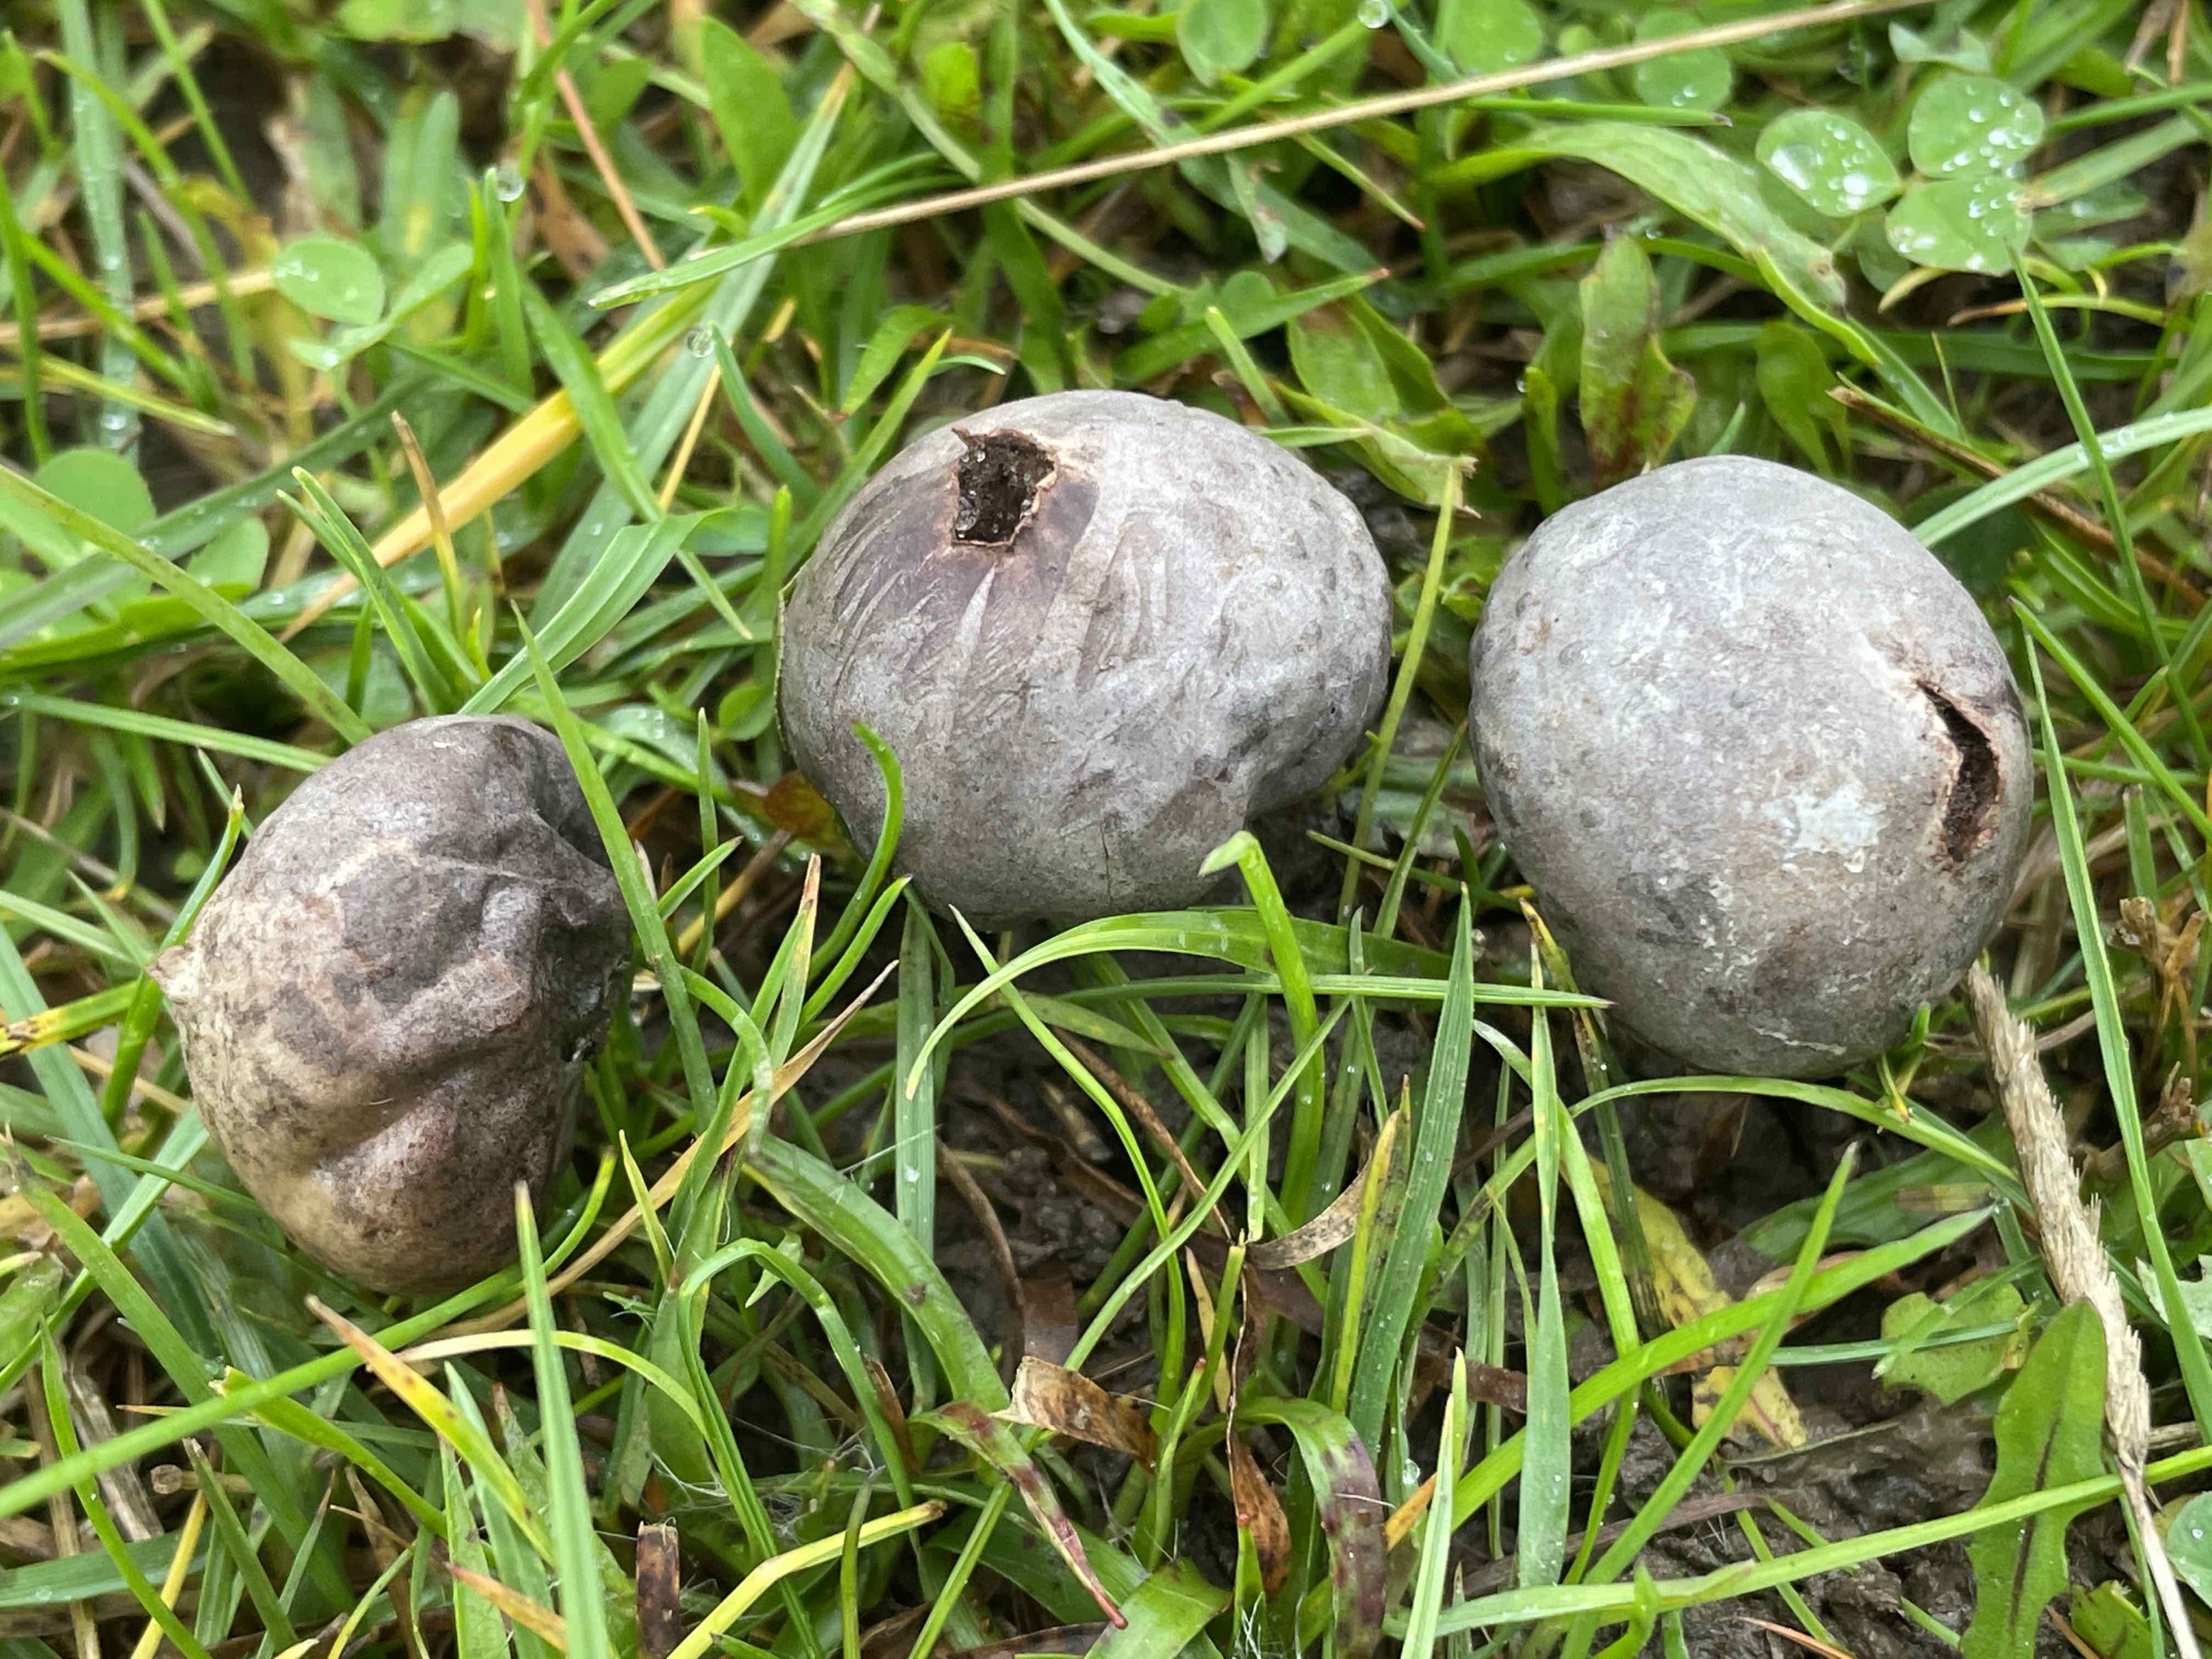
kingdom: Fungi
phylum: Basidiomycota
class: Agaricomycetes
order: Agaricales
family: Lycoperdaceae
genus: Bovista
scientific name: Bovista plumbea
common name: blygrå bovist
